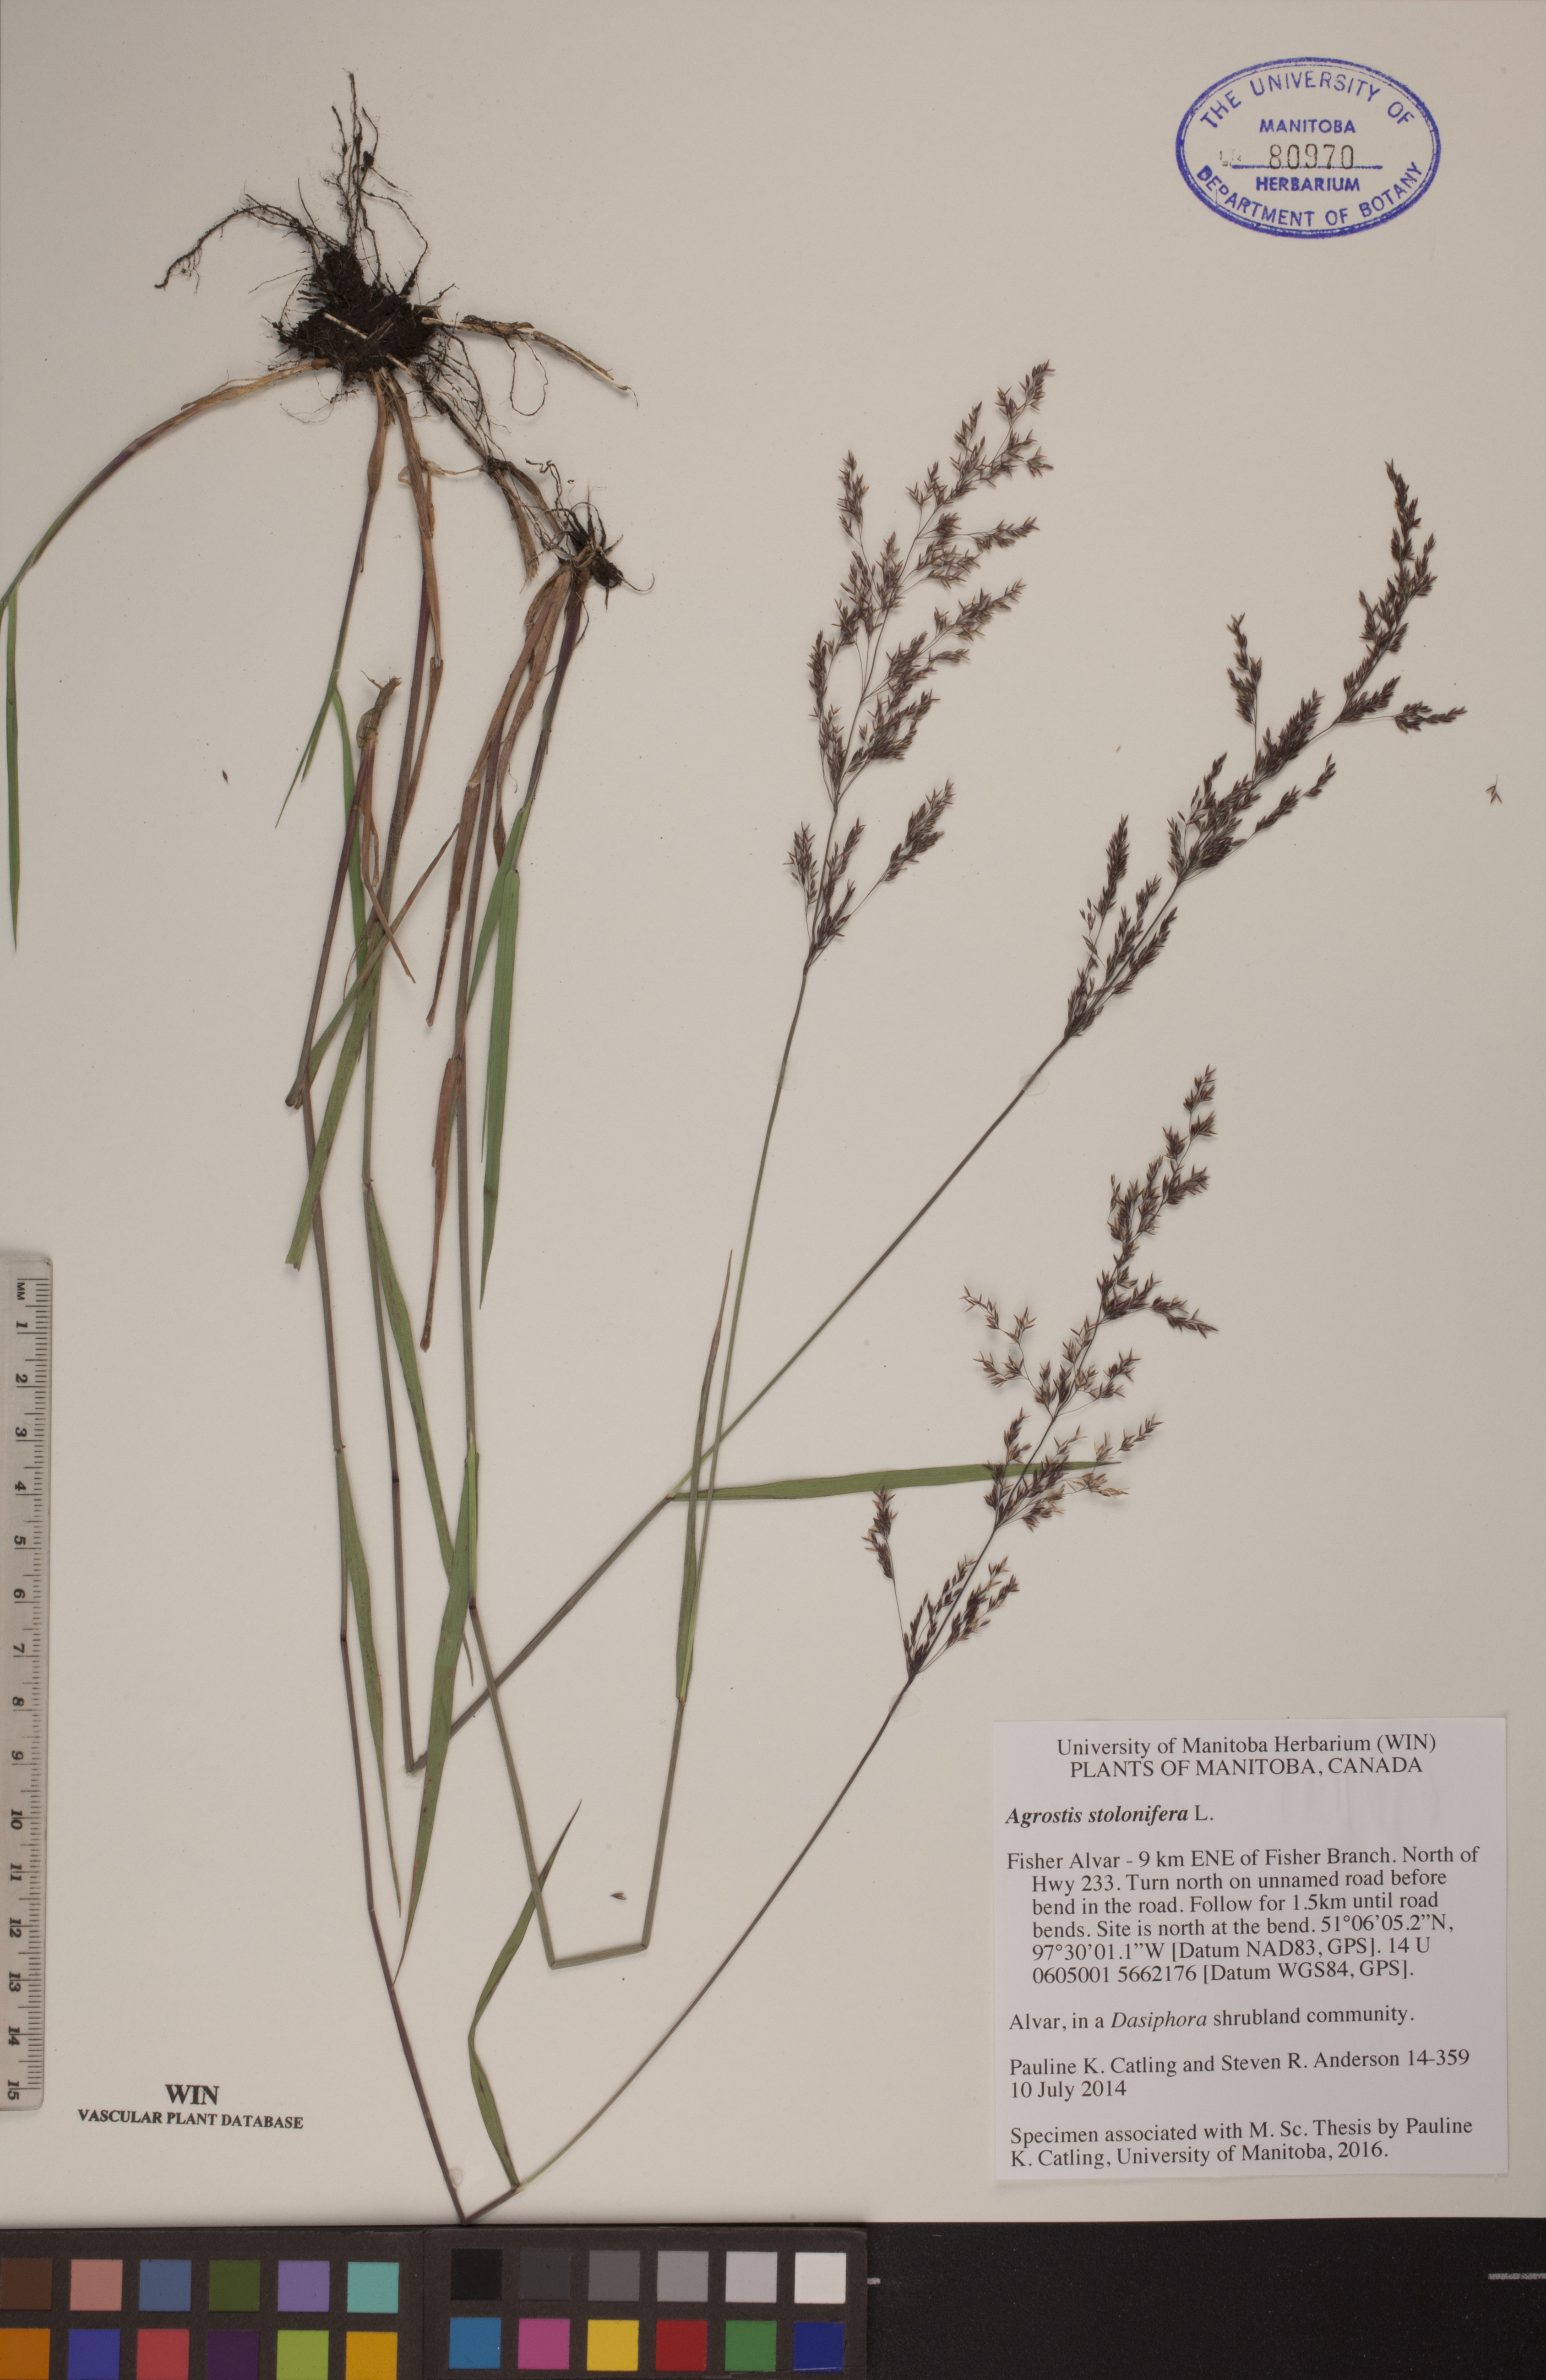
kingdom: Plantae
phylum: Tracheophyta
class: Liliopsida
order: Poales
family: Poaceae
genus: Agrostis
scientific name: Agrostis stolonifera
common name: Creeping bentgrass
